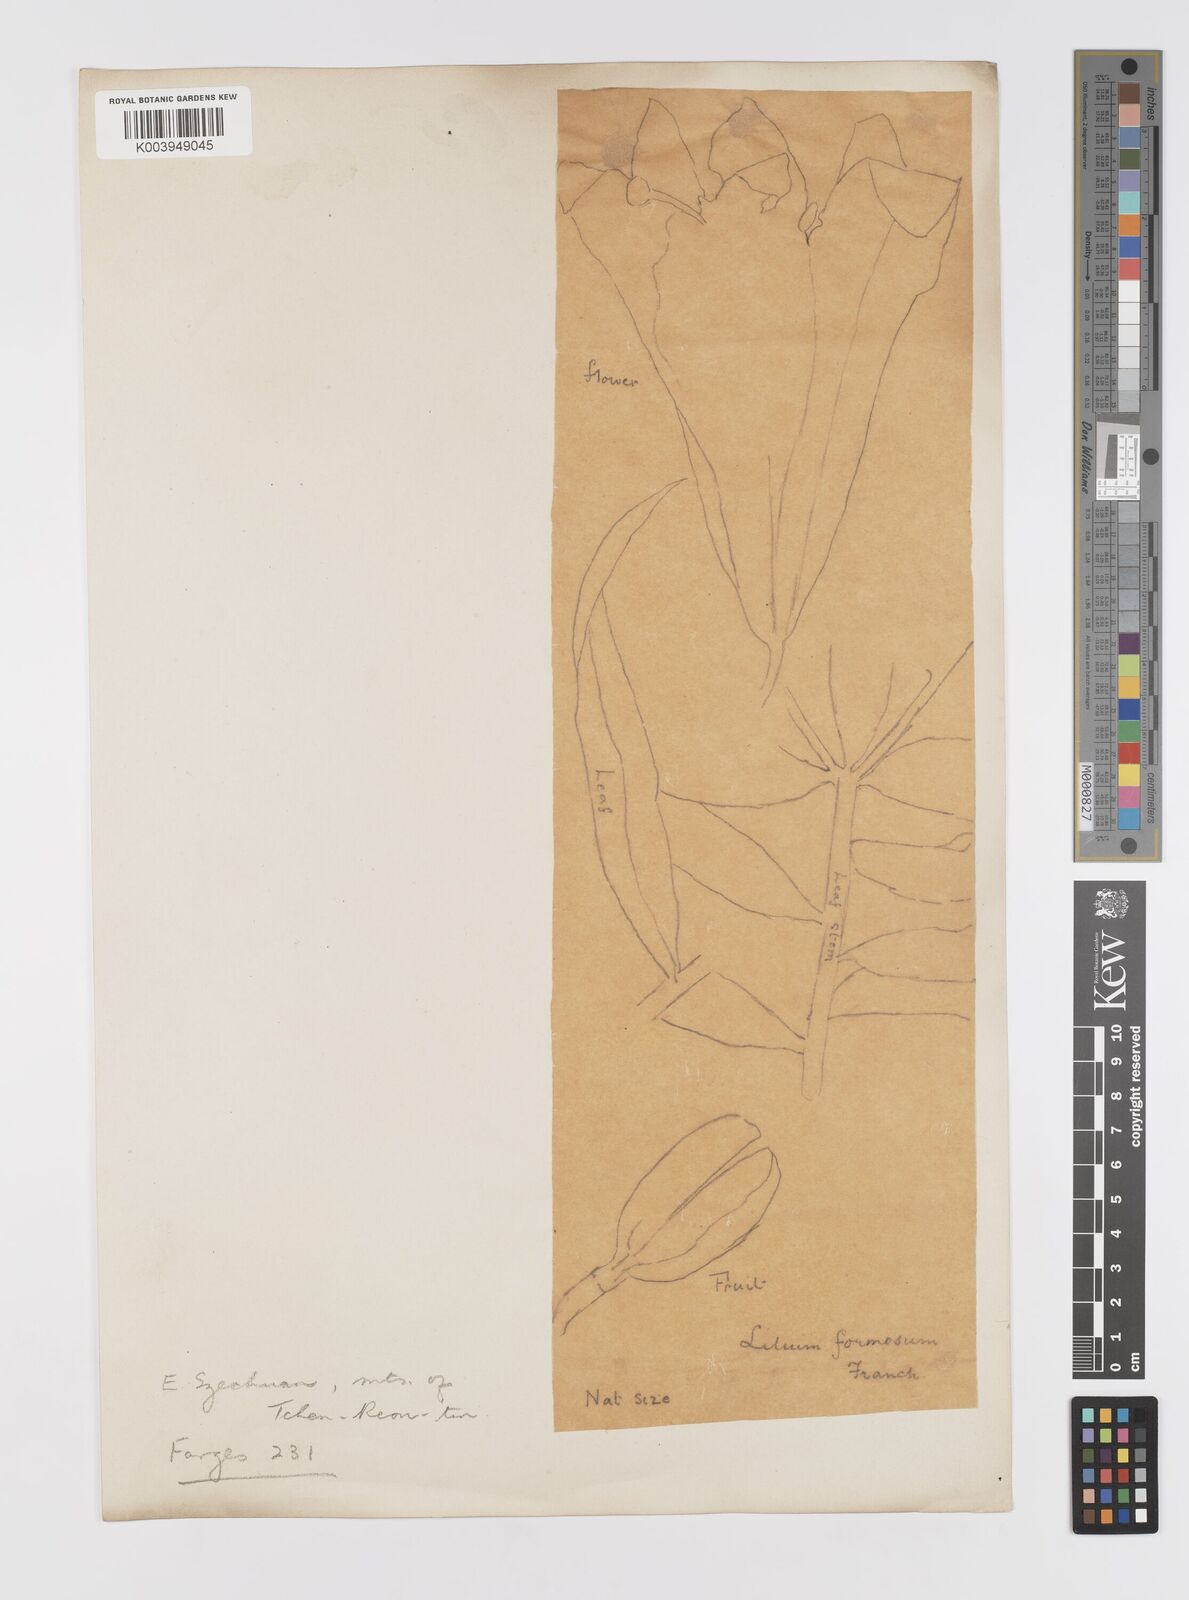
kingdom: Plantae
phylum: Tracheophyta
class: Liliopsida
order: Liliales
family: Liliaceae
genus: Lilium
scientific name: Lilium leucanthum
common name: Chinese white lily
